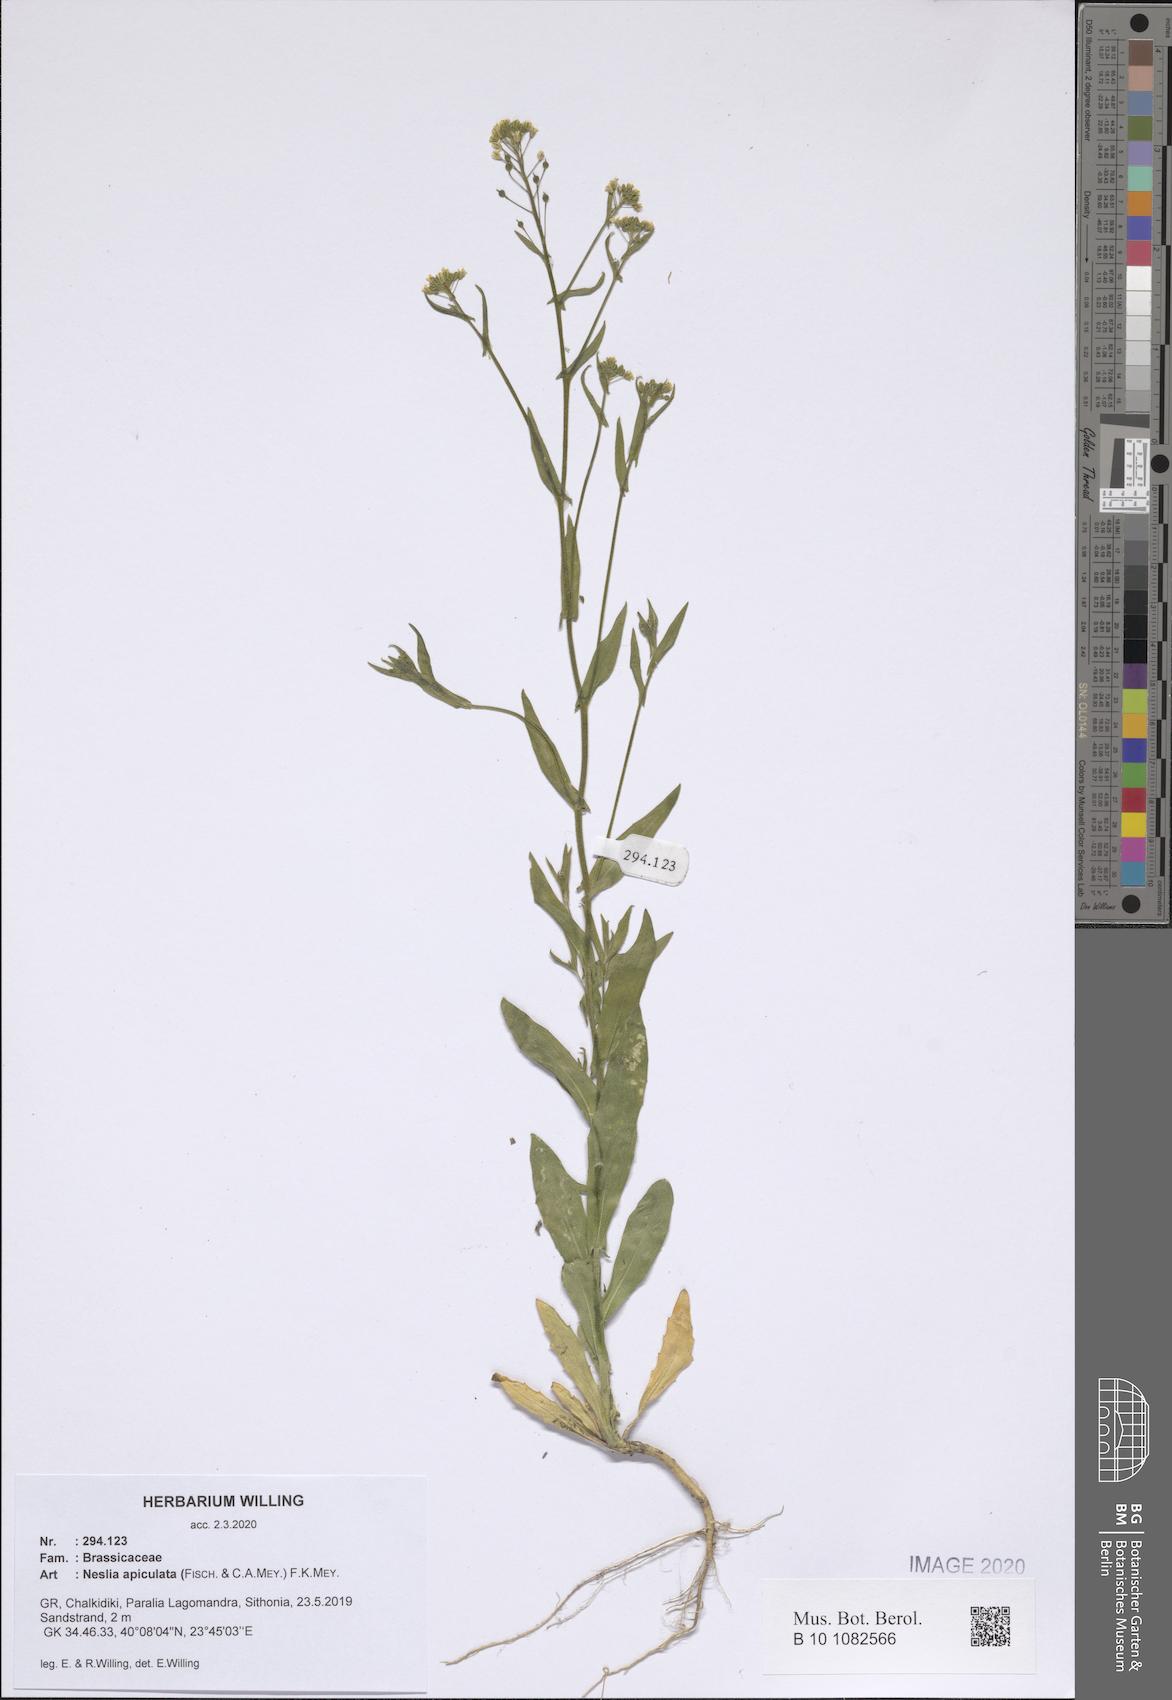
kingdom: Plantae
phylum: Tracheophyta
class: Magnoliopsida
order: Brassicales
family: Brassicaceae
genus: Neslia
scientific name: Neslia paniculata
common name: Ball mustard
